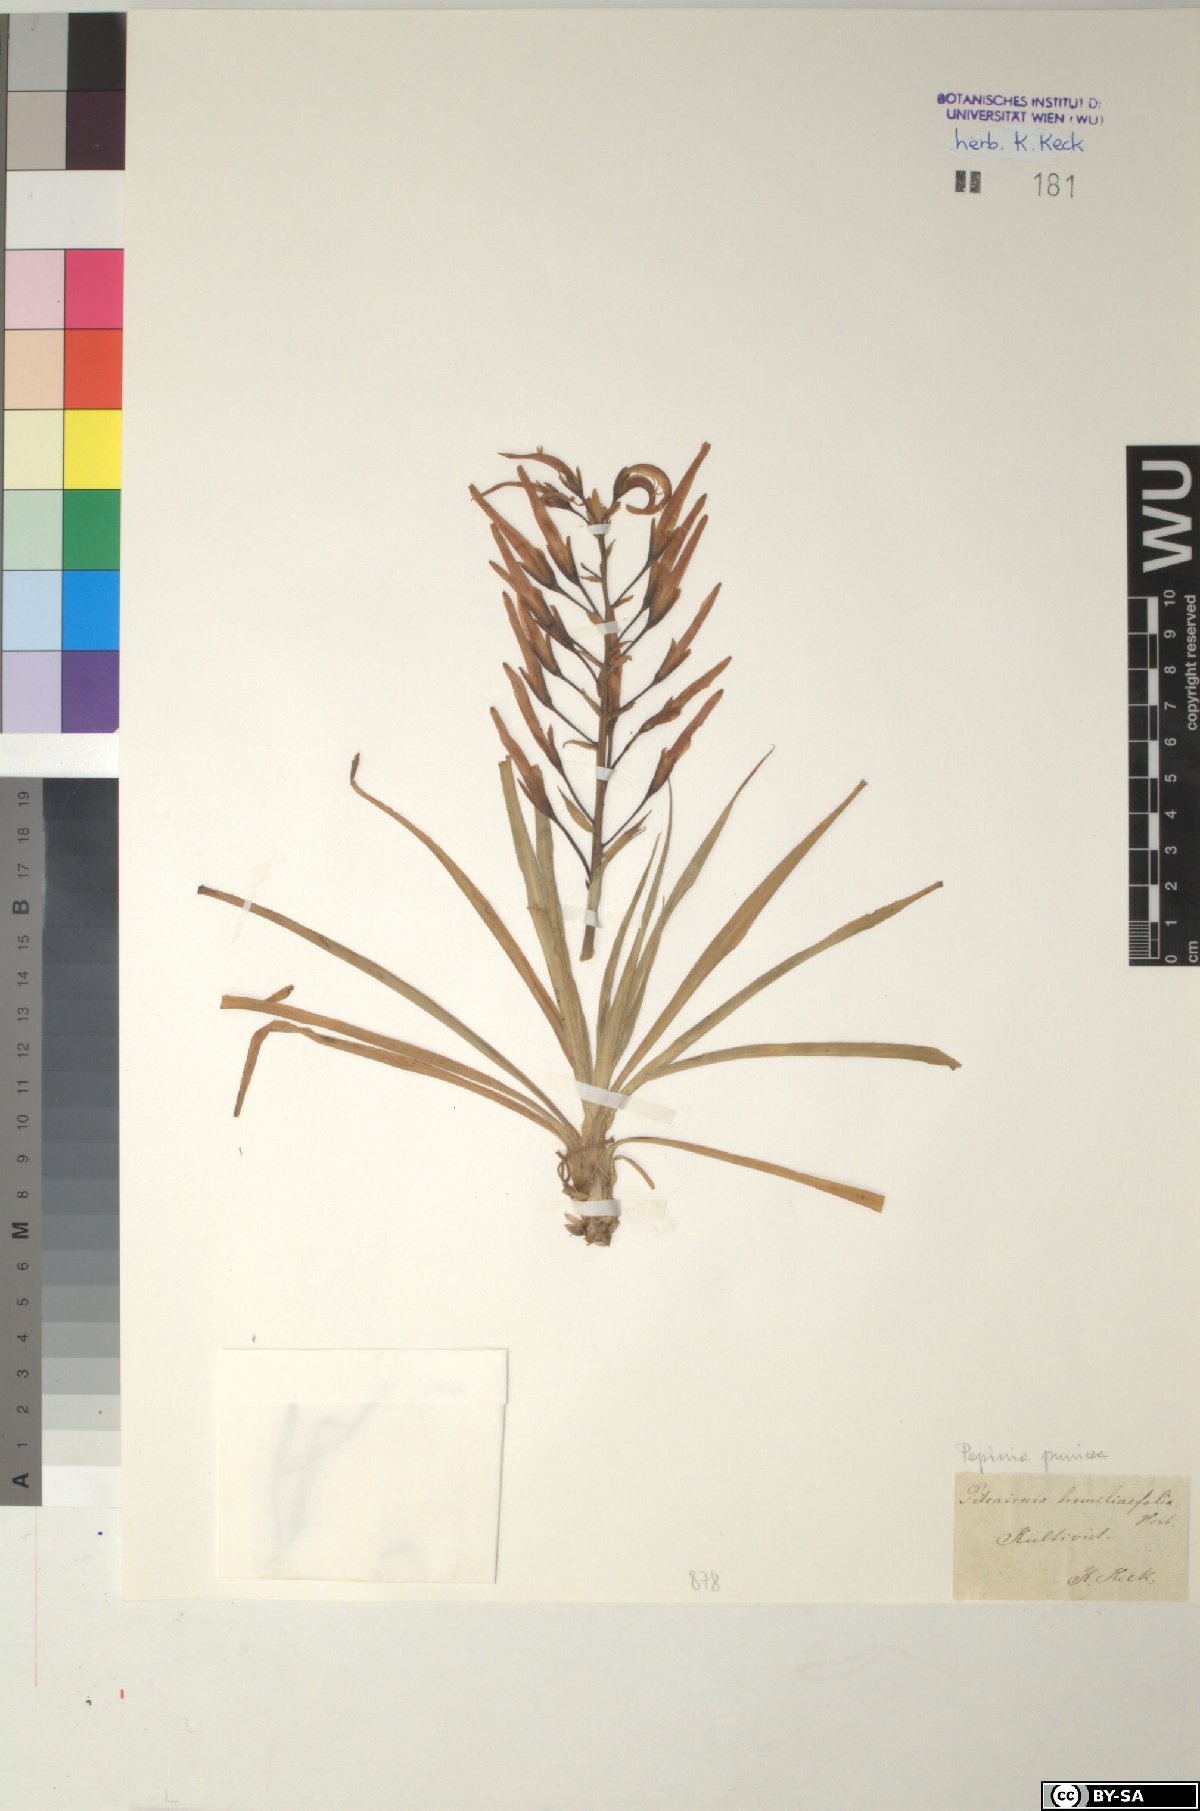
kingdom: Plantae
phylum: Tracheophyta
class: Liliopsida
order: Poales
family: Bromeliaceae
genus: Pitcairnia
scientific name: Pitcairnia punicea
